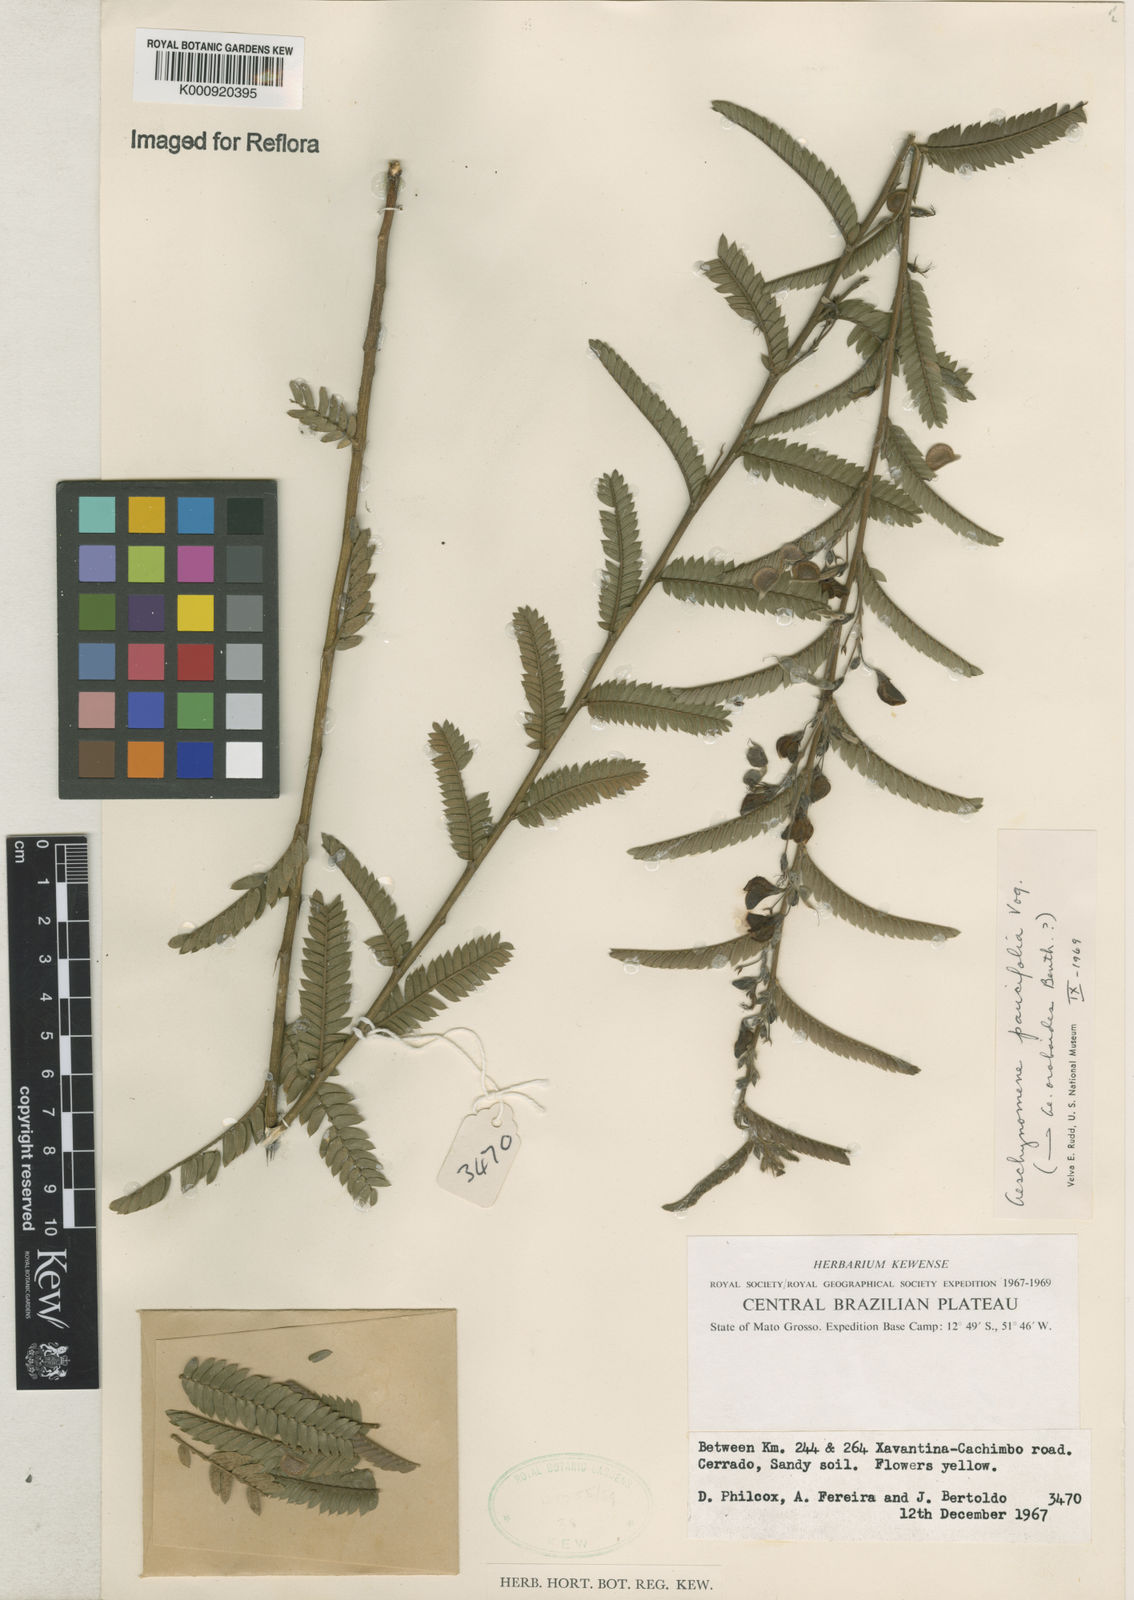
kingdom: Plantae
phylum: Tracheophyta
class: Magnoliopsida
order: Fabales
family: Fabaceae
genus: Ctenodon
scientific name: Ctenodon paucifolius
